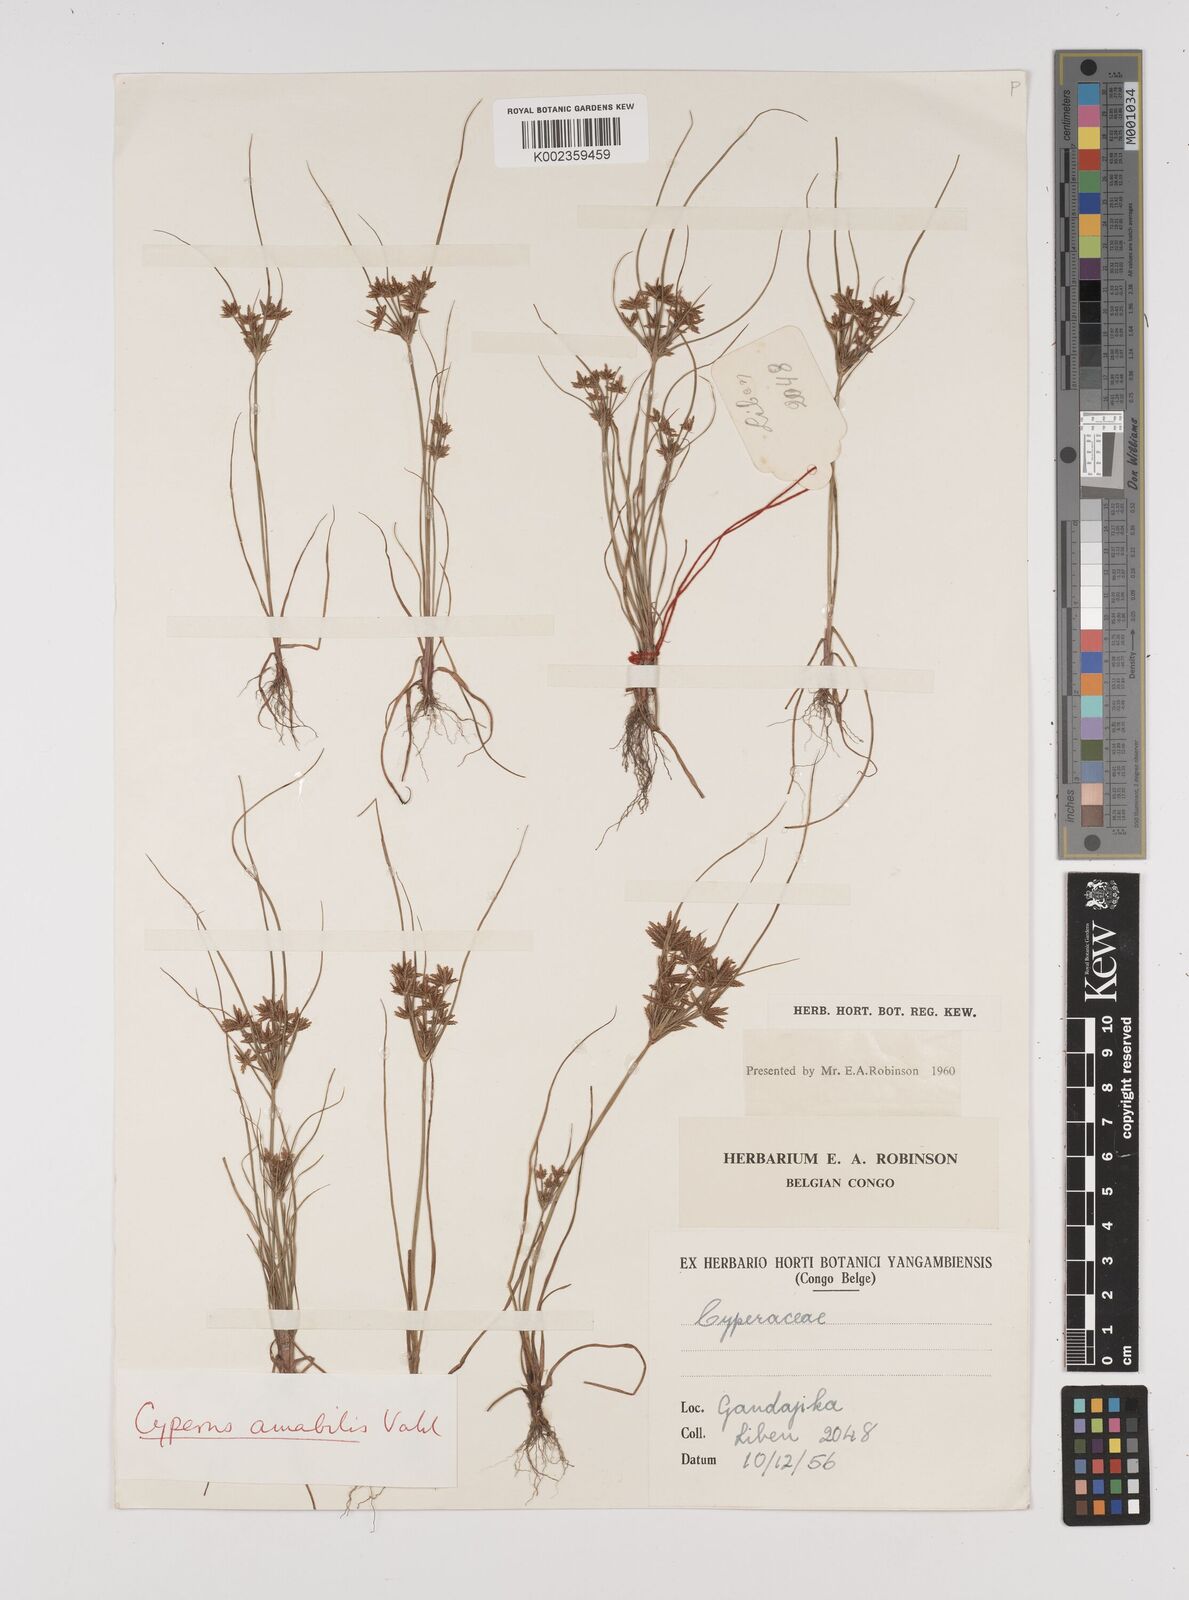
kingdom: Plantae
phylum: Tracheophyta
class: Liliopsida
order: Poales
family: Cyperaceae
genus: Cyperus
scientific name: Cyperus amabilis
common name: Foothill flat sedge
